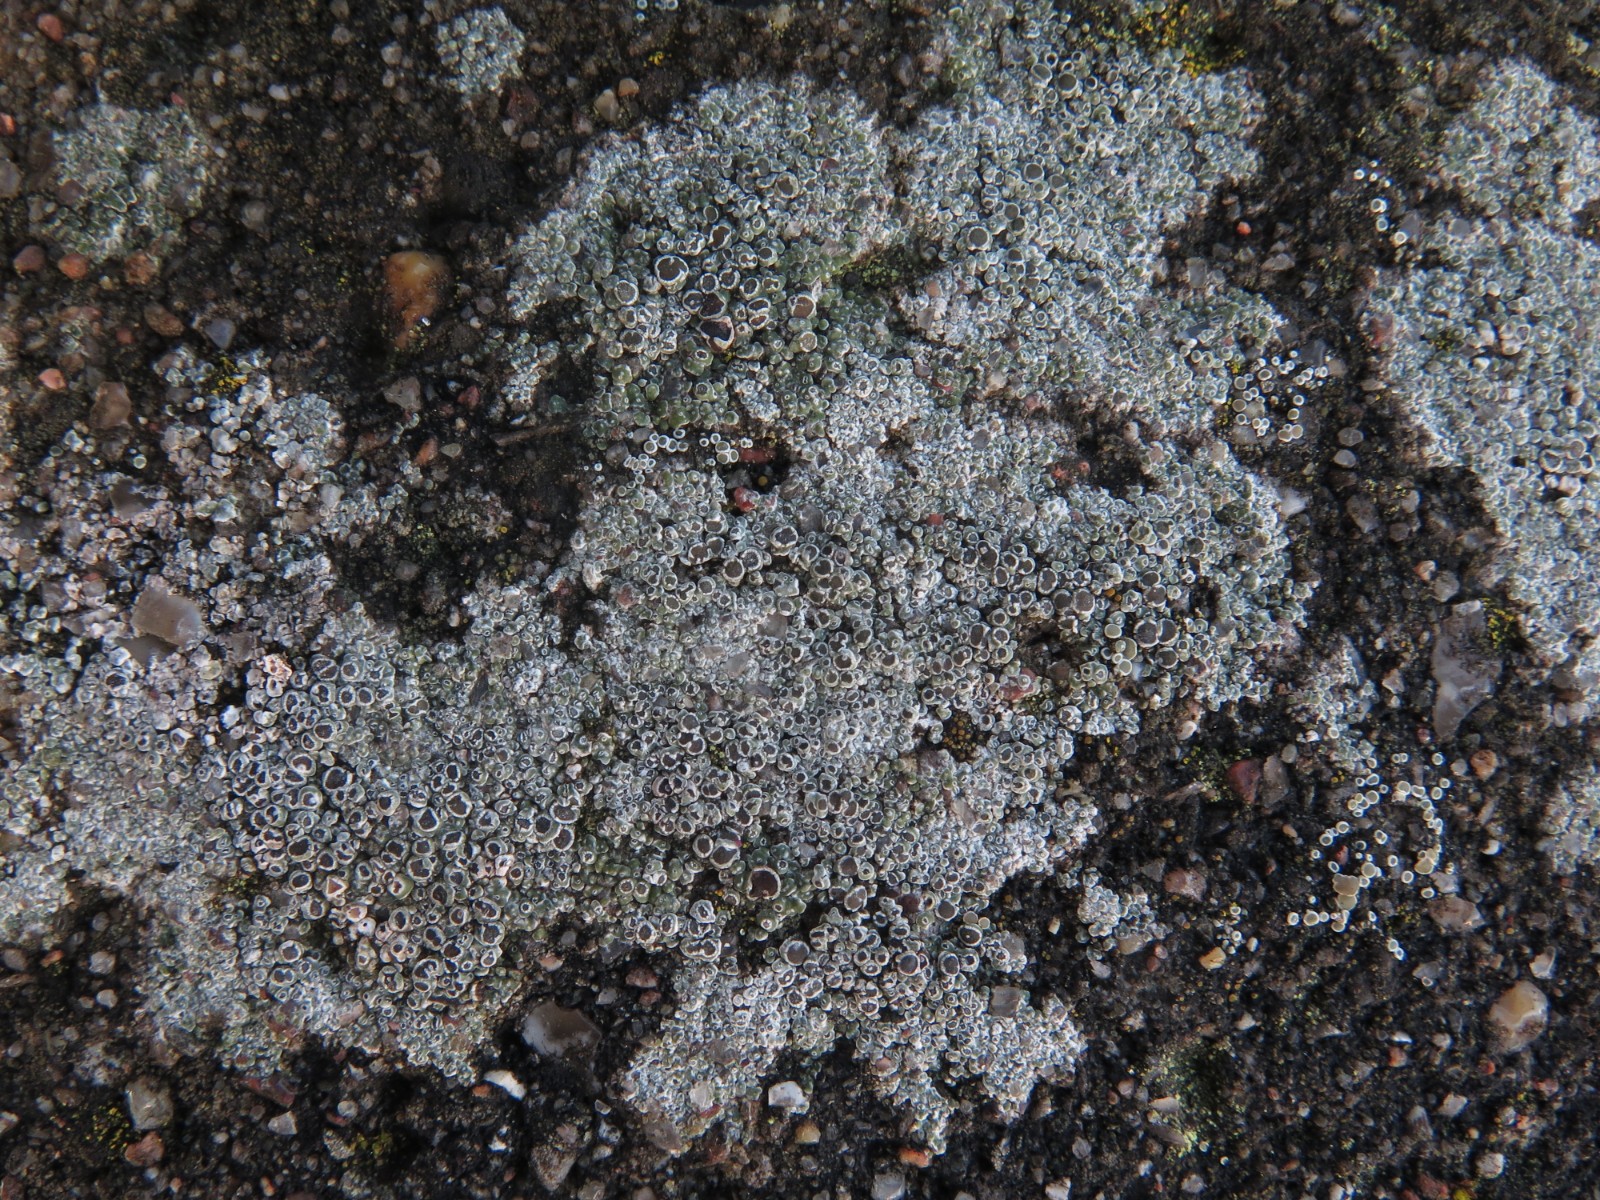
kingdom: Fungi
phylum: Ascomycota
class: Lecanoromycetes
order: Lecanorales
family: Lecanoraceae
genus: Polyozosia
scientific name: Polyozosia albescens
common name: cement-kantskivelav
